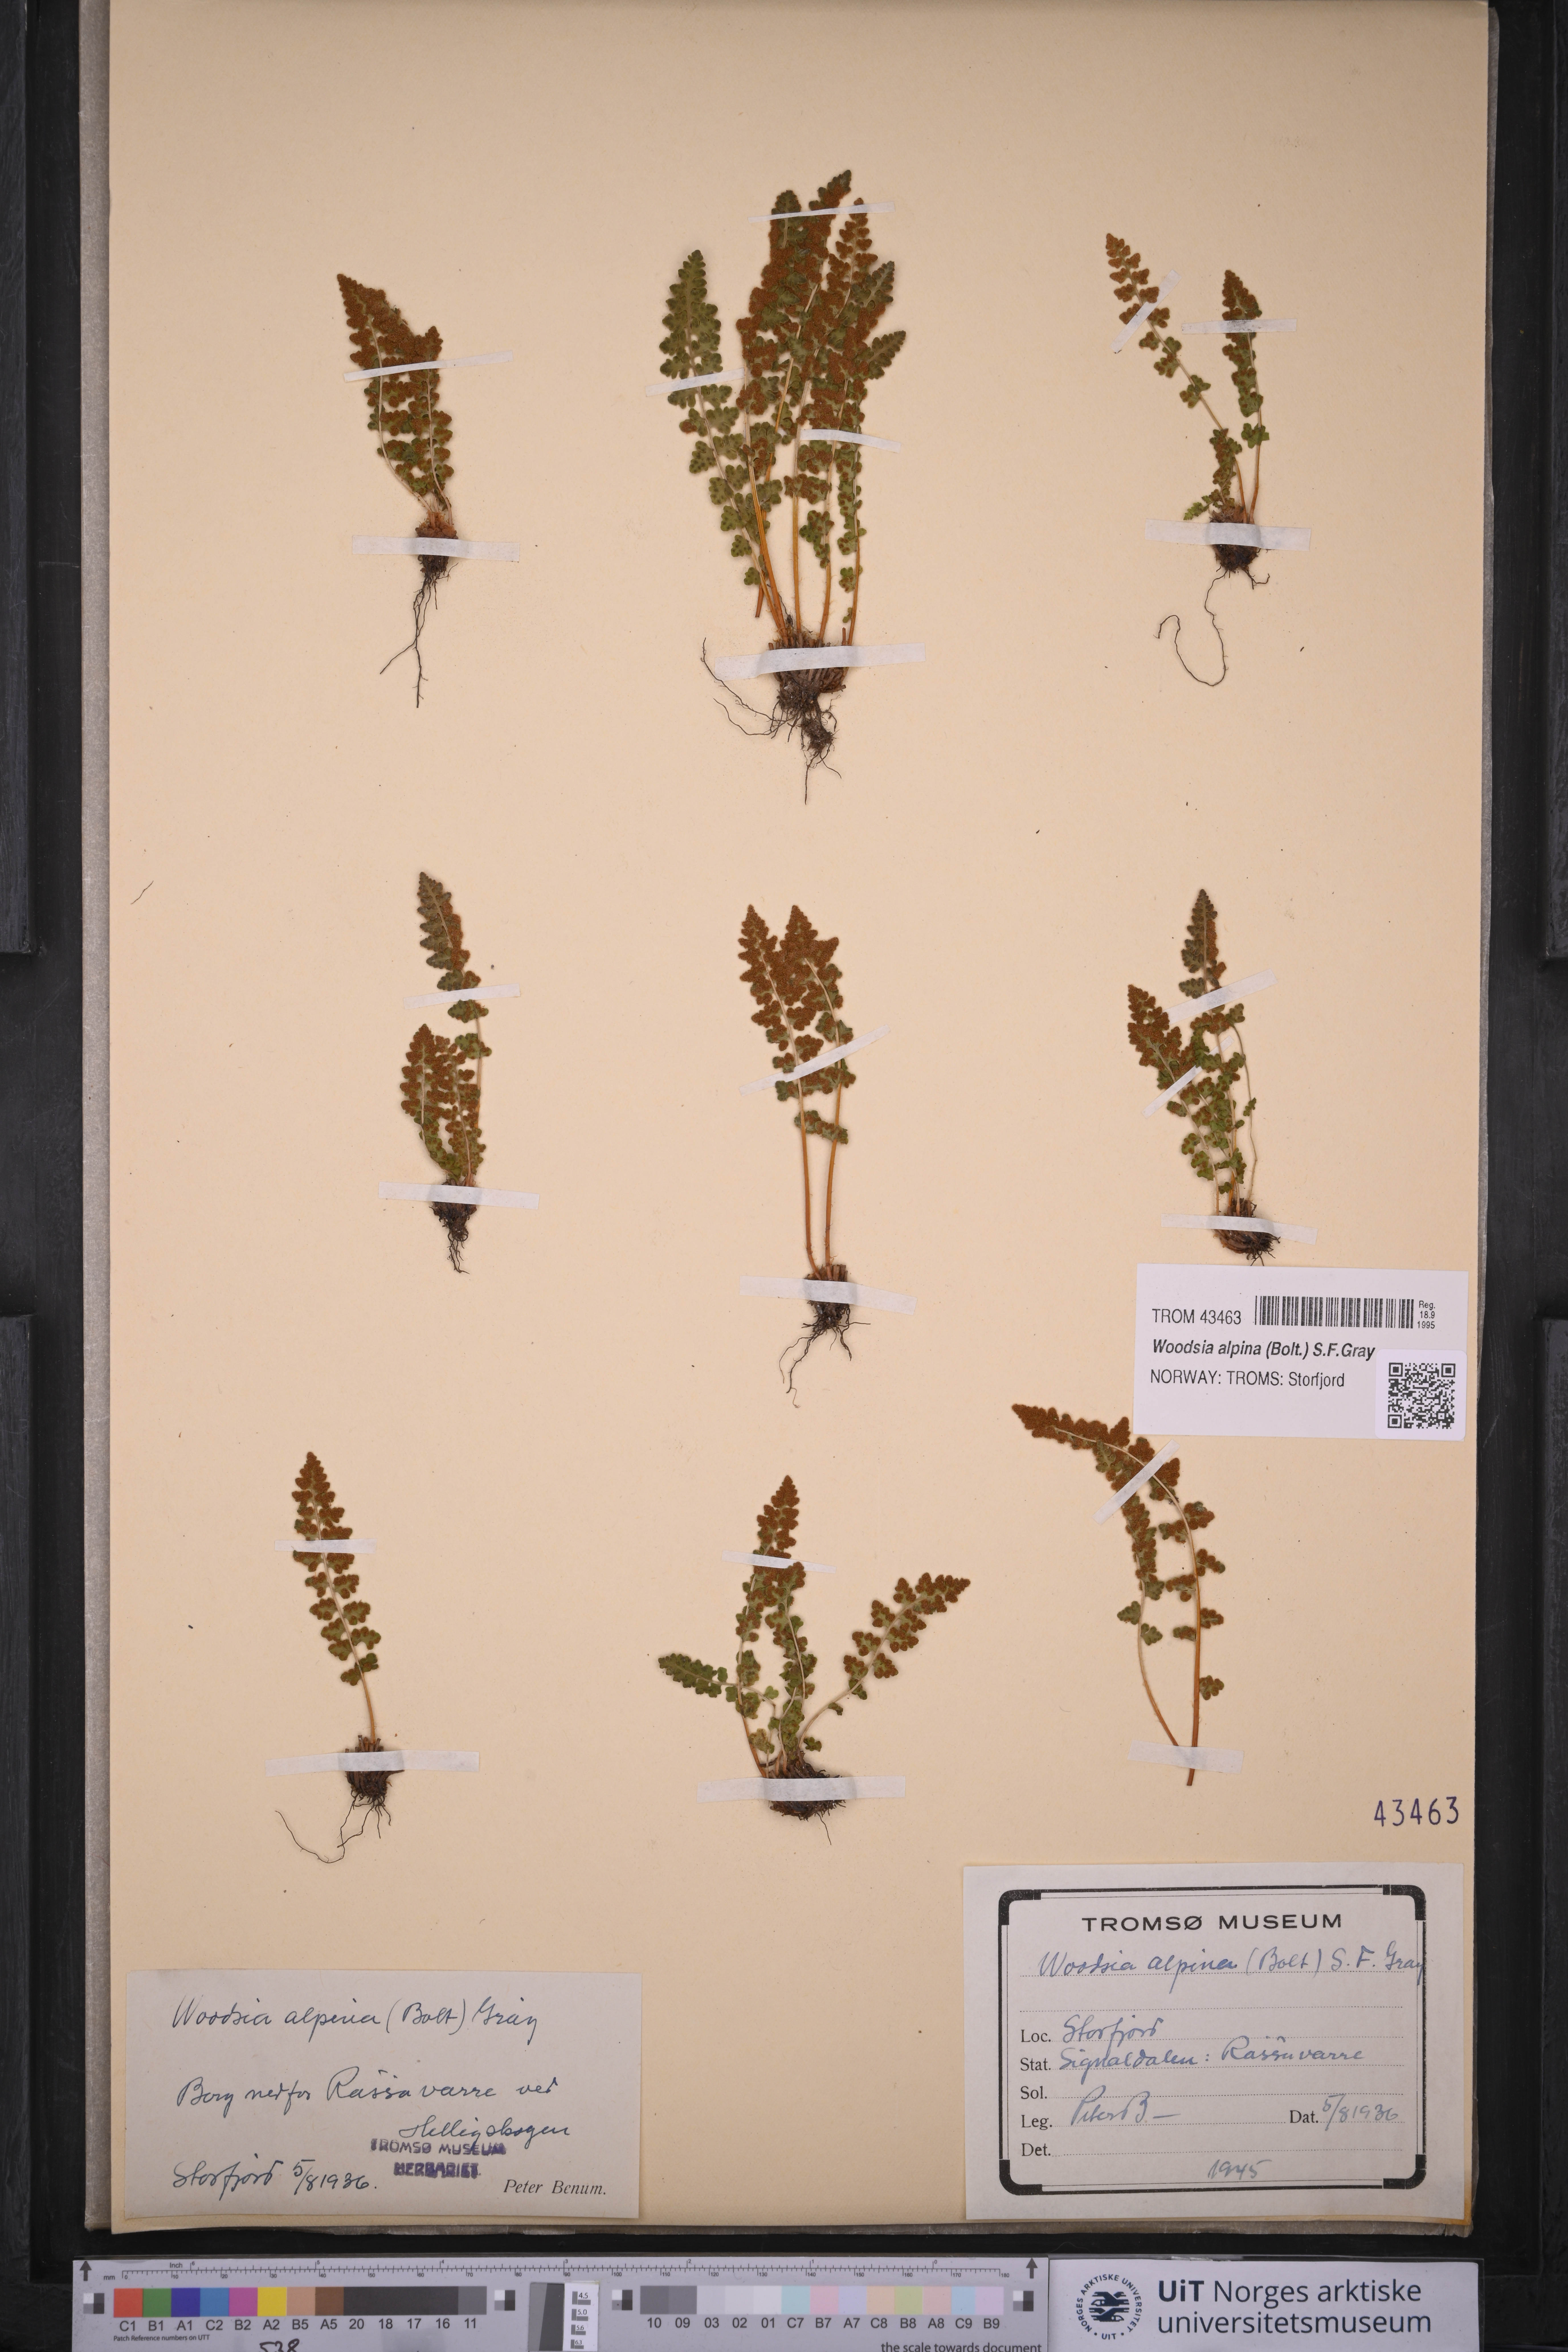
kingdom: Plantae
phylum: Tracheophyta
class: Polypodiopsida
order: Polypodiales
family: Woodsiaceae
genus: Woodsia
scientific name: Woodsia alpina
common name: Alpine woodsia
